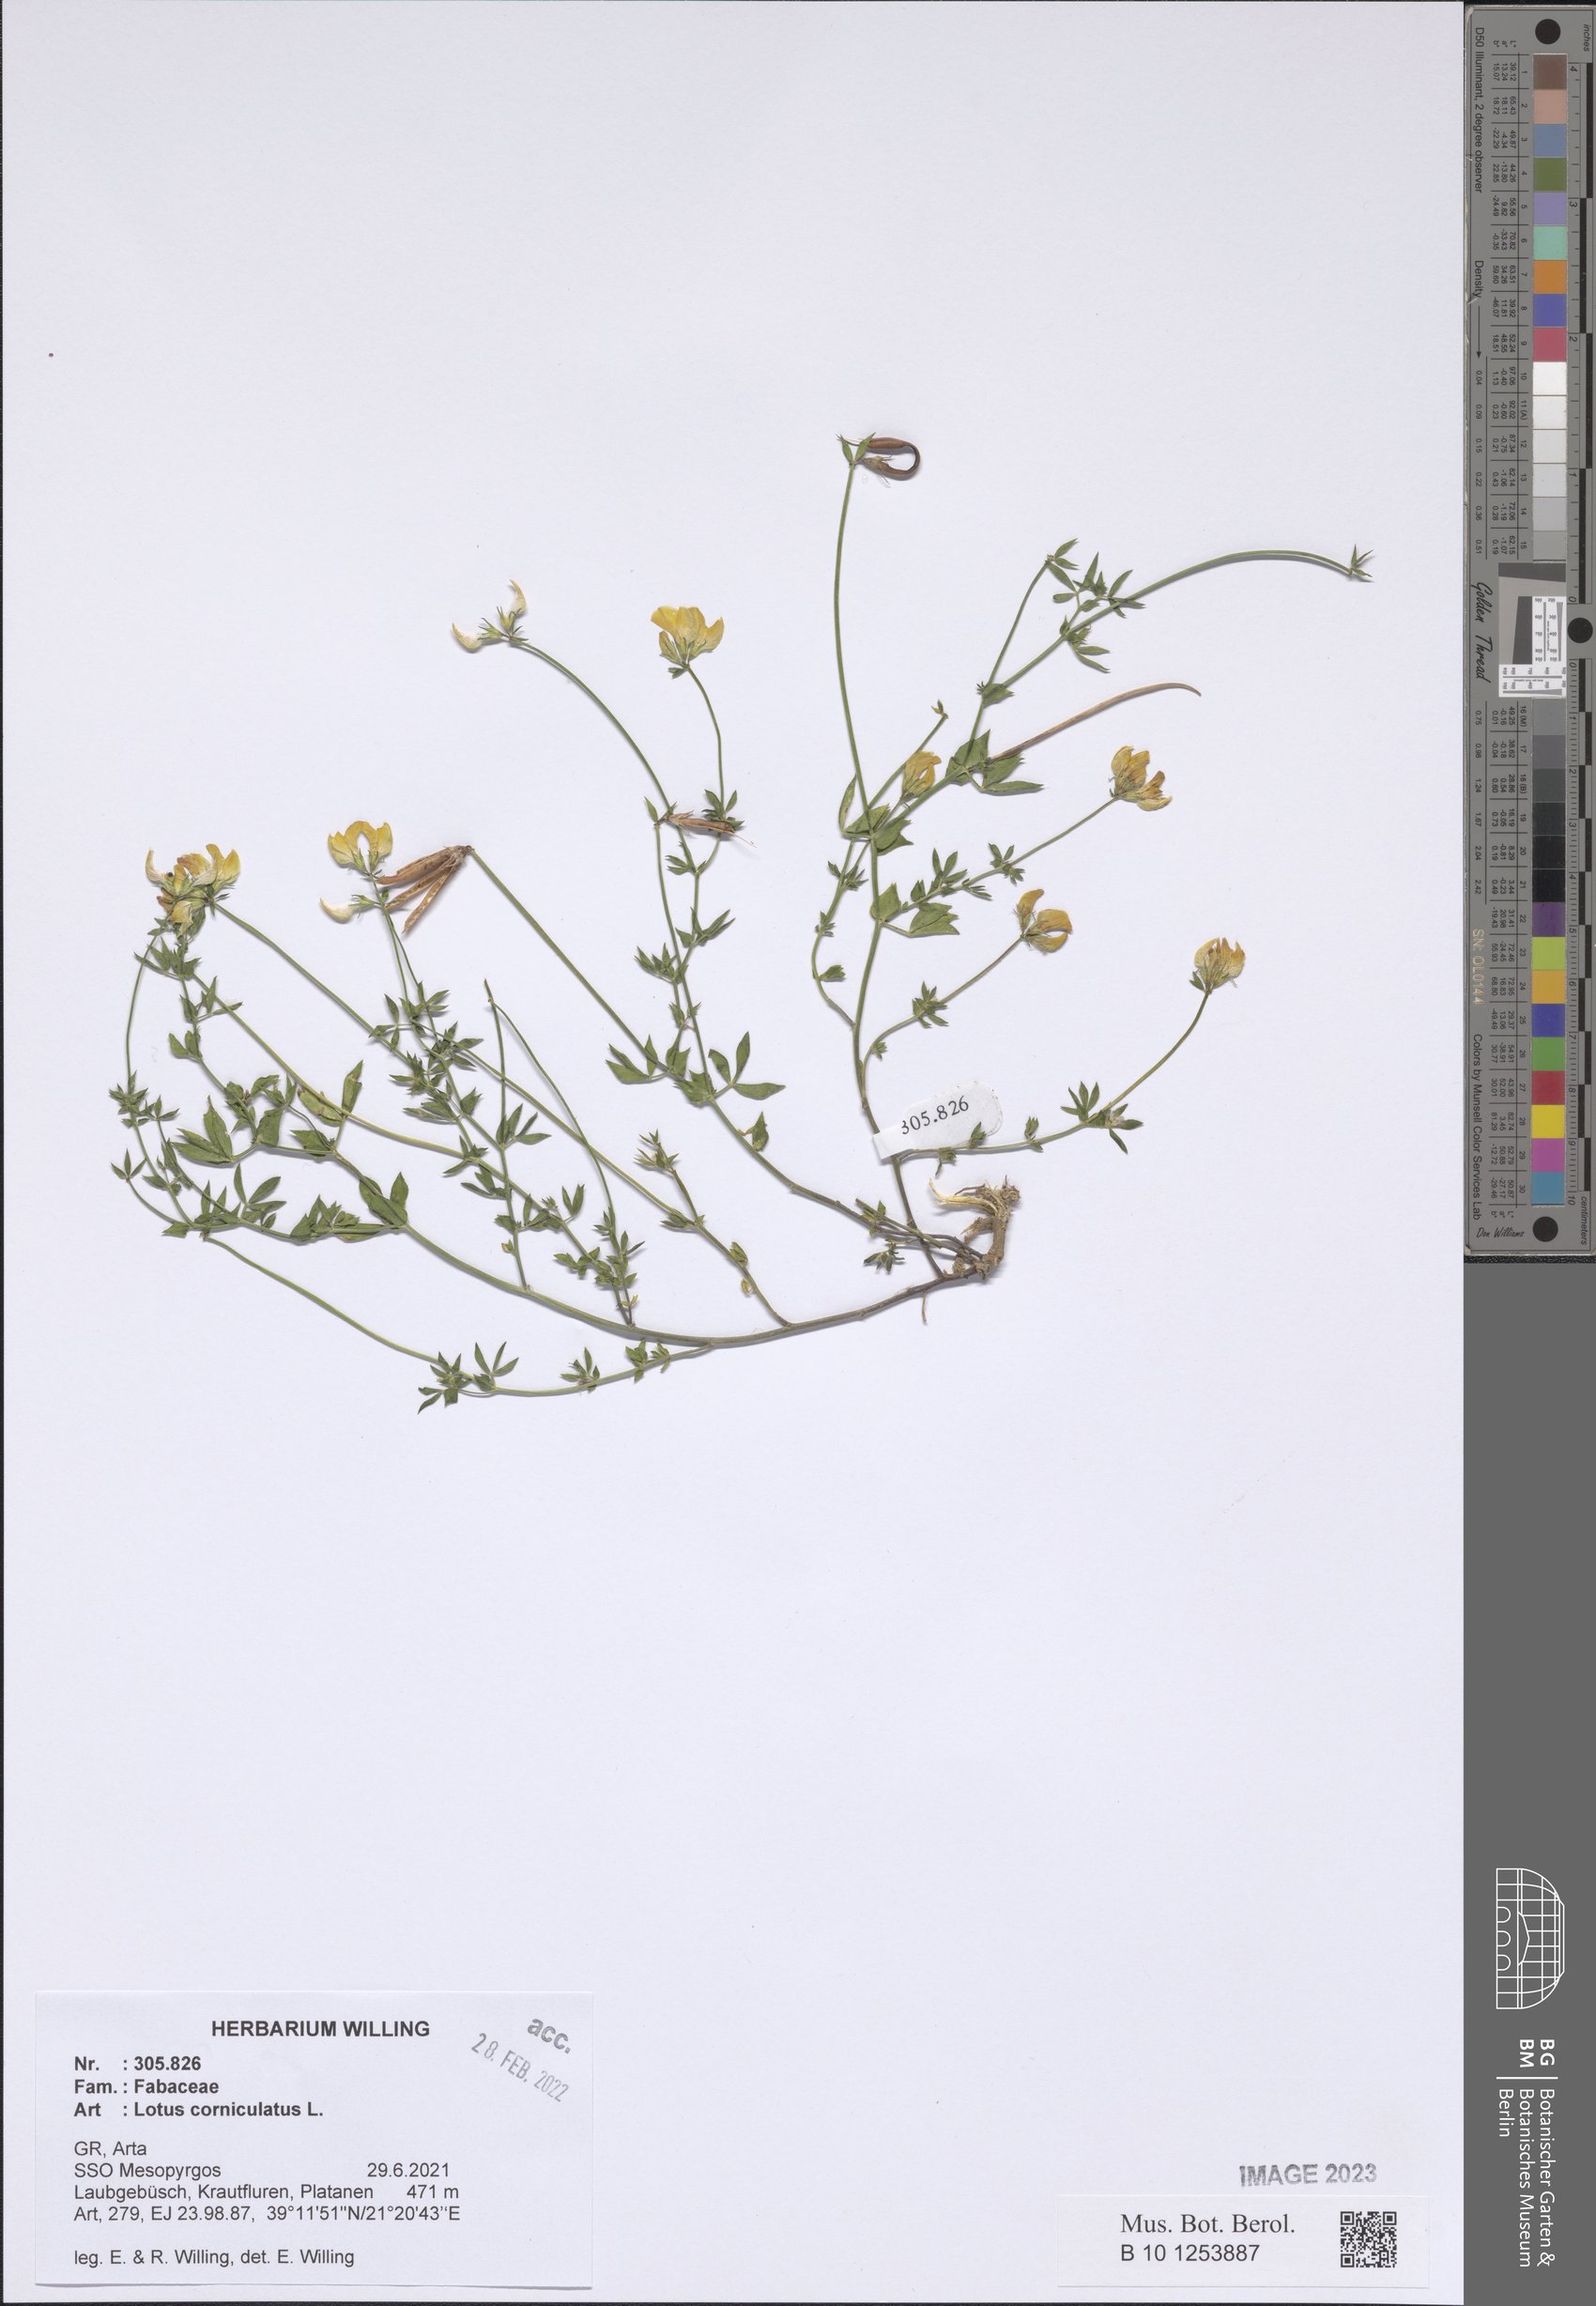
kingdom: Plantae
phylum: Tracheophyta
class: Magnoliopsida
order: Fabales
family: Fabaceae
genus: Lotus
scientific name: Lotus corniculatus
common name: Common bird's-foot-trefoil
